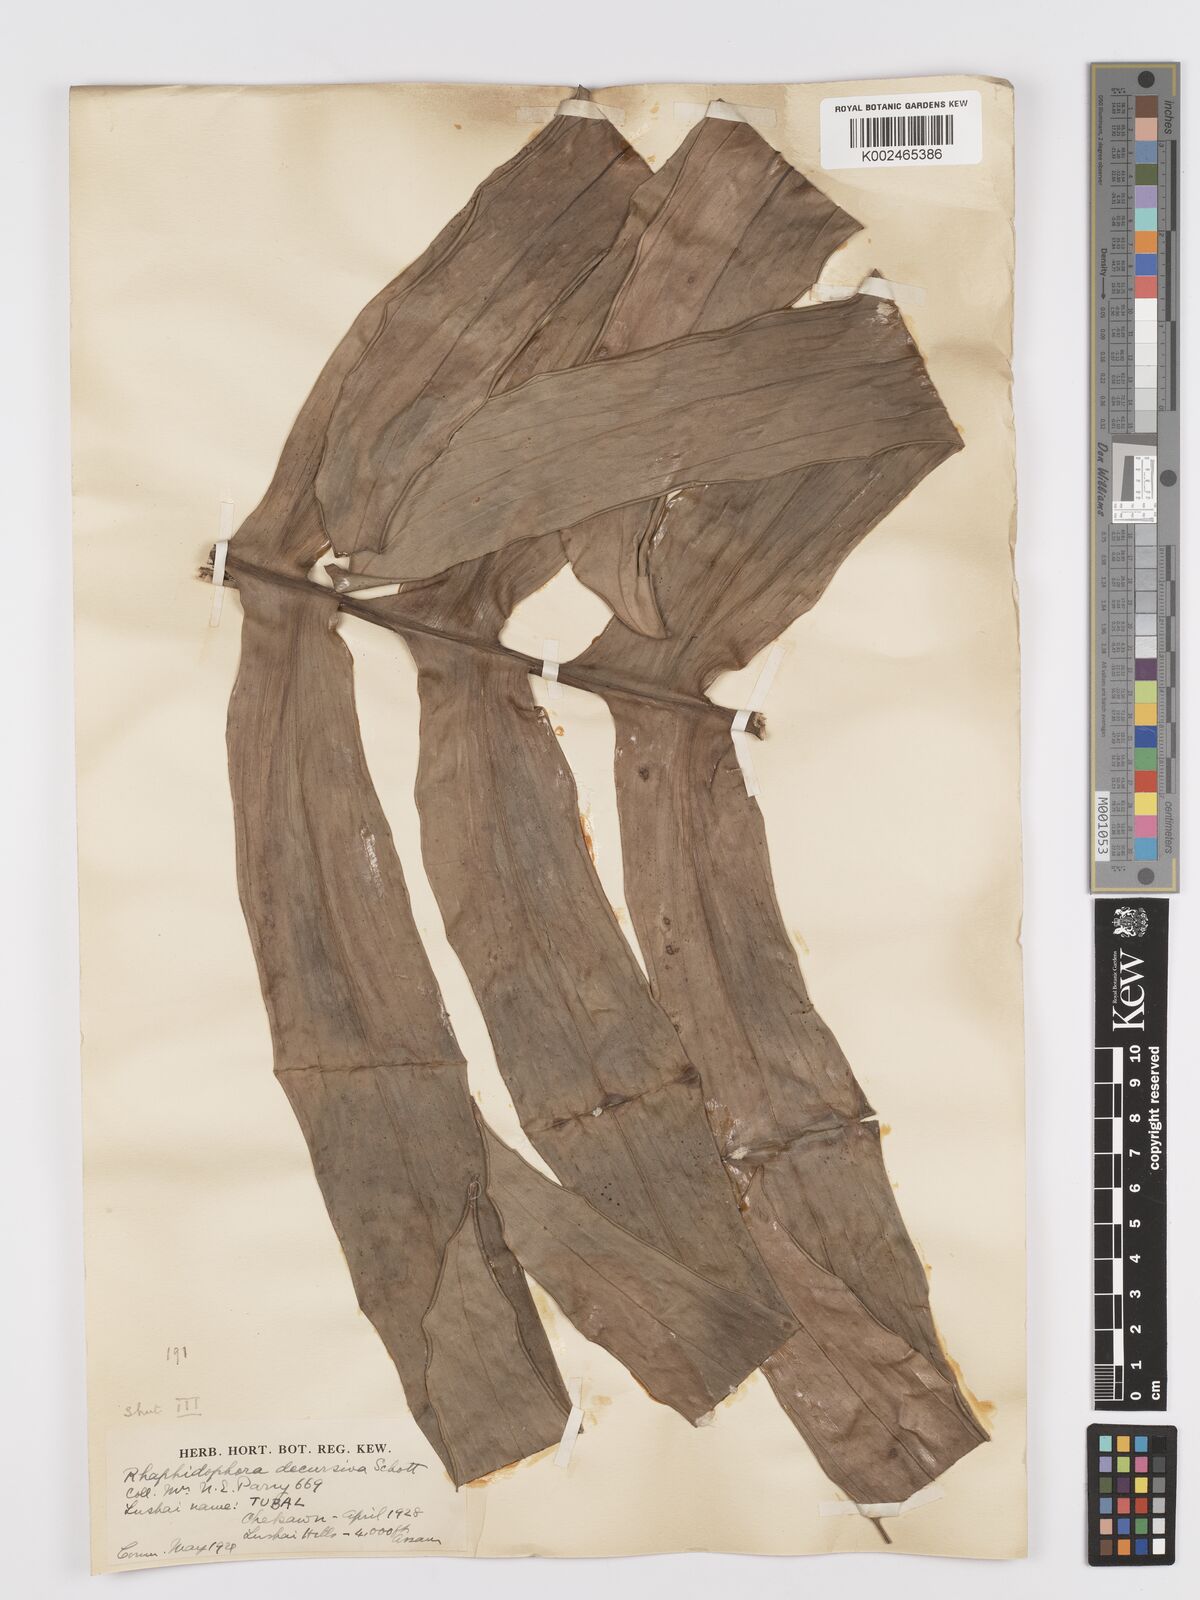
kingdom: Plantae
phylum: Tracheophyta
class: Liliopsida
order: Alismatales
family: Araceae
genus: Rhaphidophora
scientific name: Rhaphidophora decursiva
